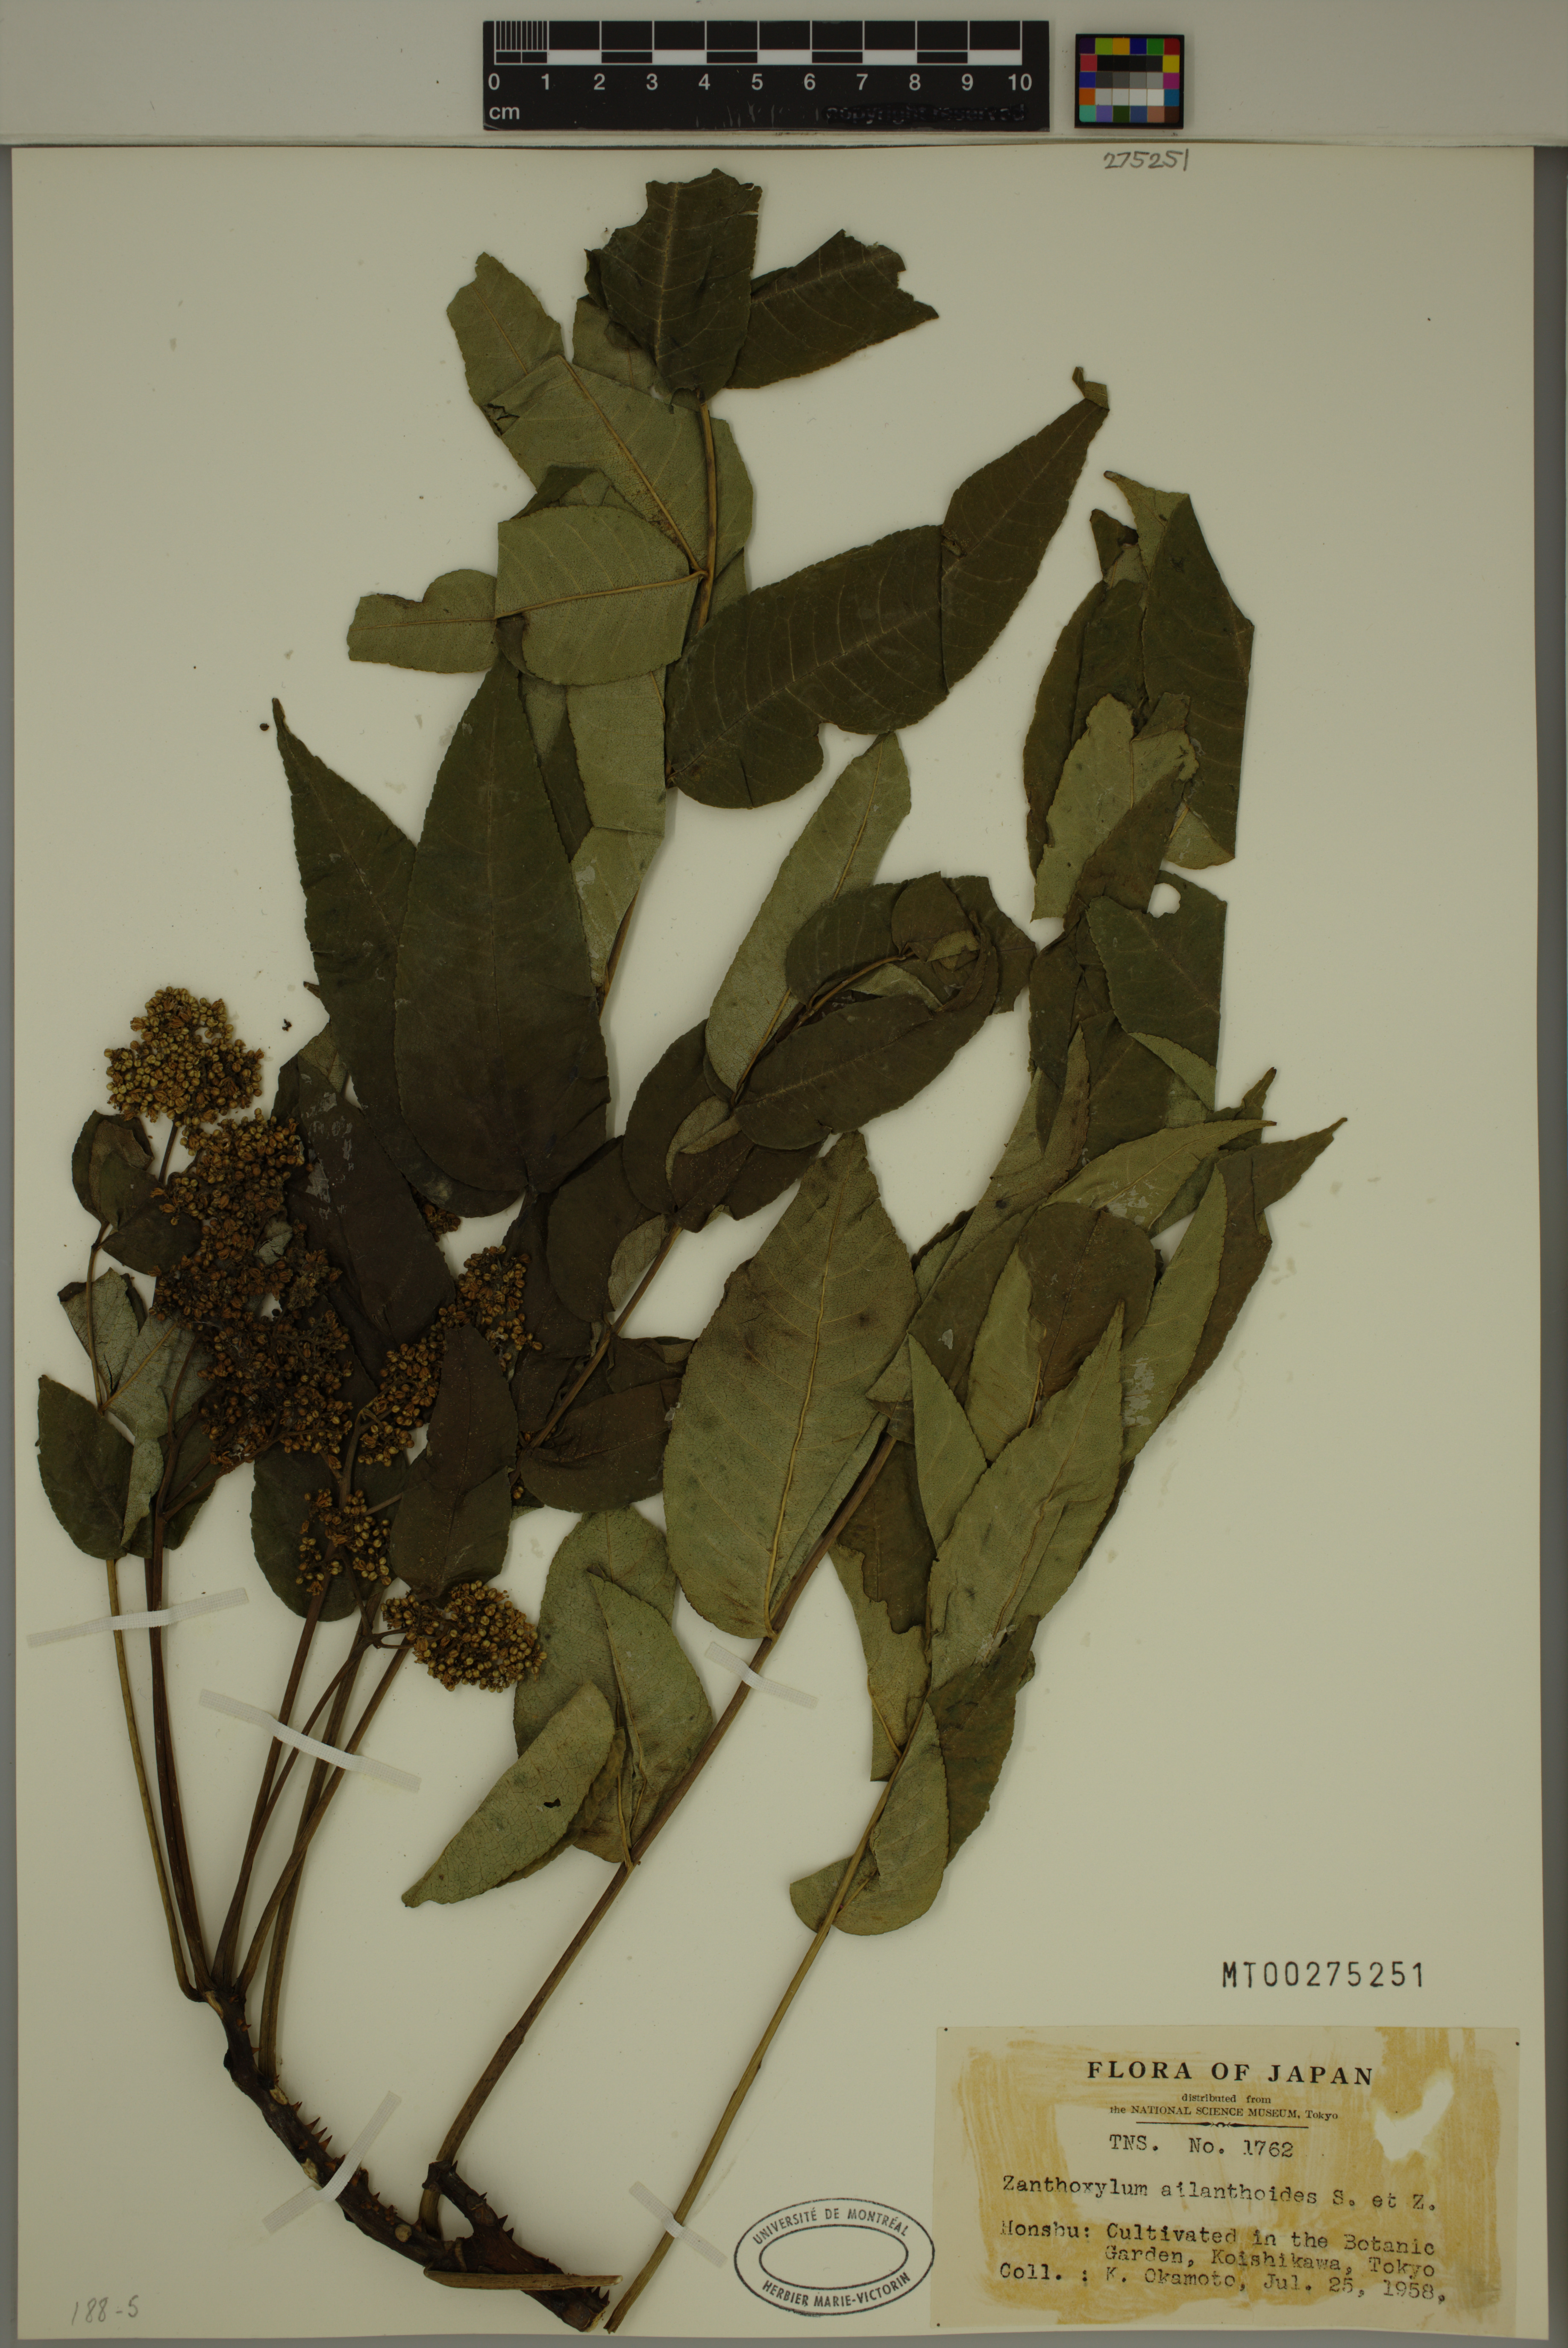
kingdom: Plantae
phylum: Tracheophyta
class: Magnoliopsida
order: Sapindales
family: Rutaceae
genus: Zanthoxylum
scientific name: Zanthoxylum ailanthoides
